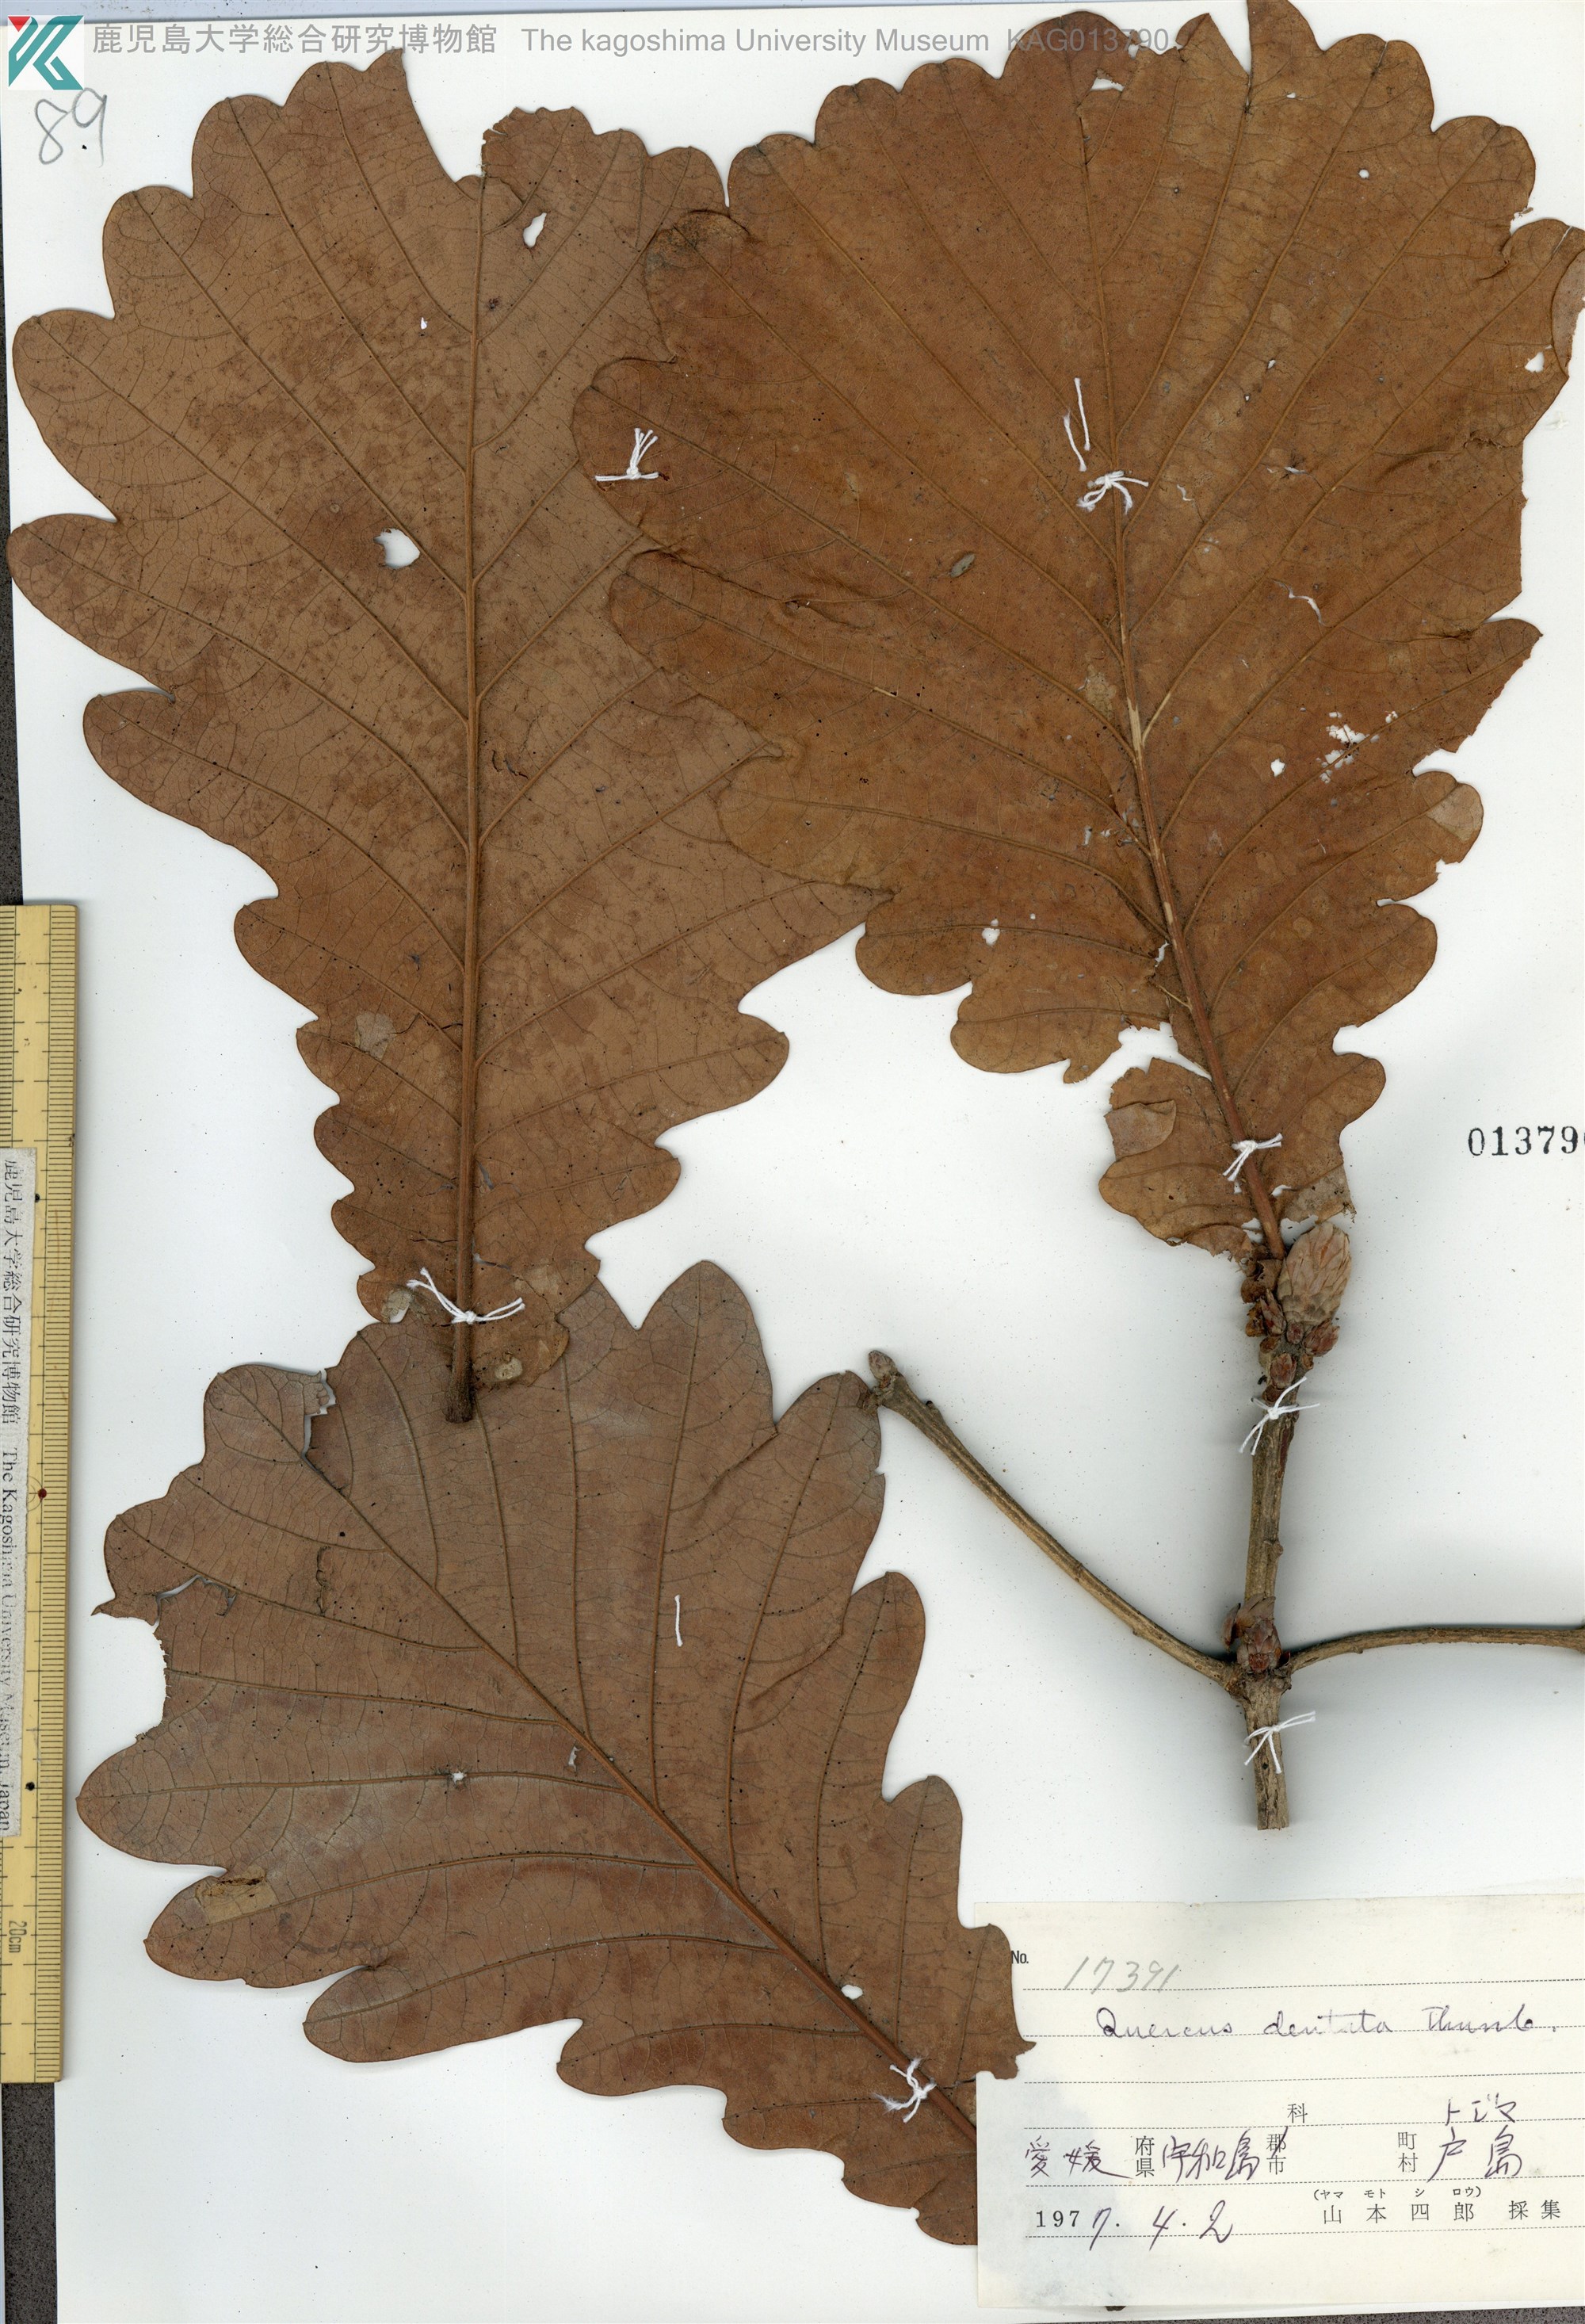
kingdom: Plantae
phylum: Tracheophyta
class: Magnoliopsida
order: Fagales
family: Fagaceae
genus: Quercus
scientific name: Quercus dentata
